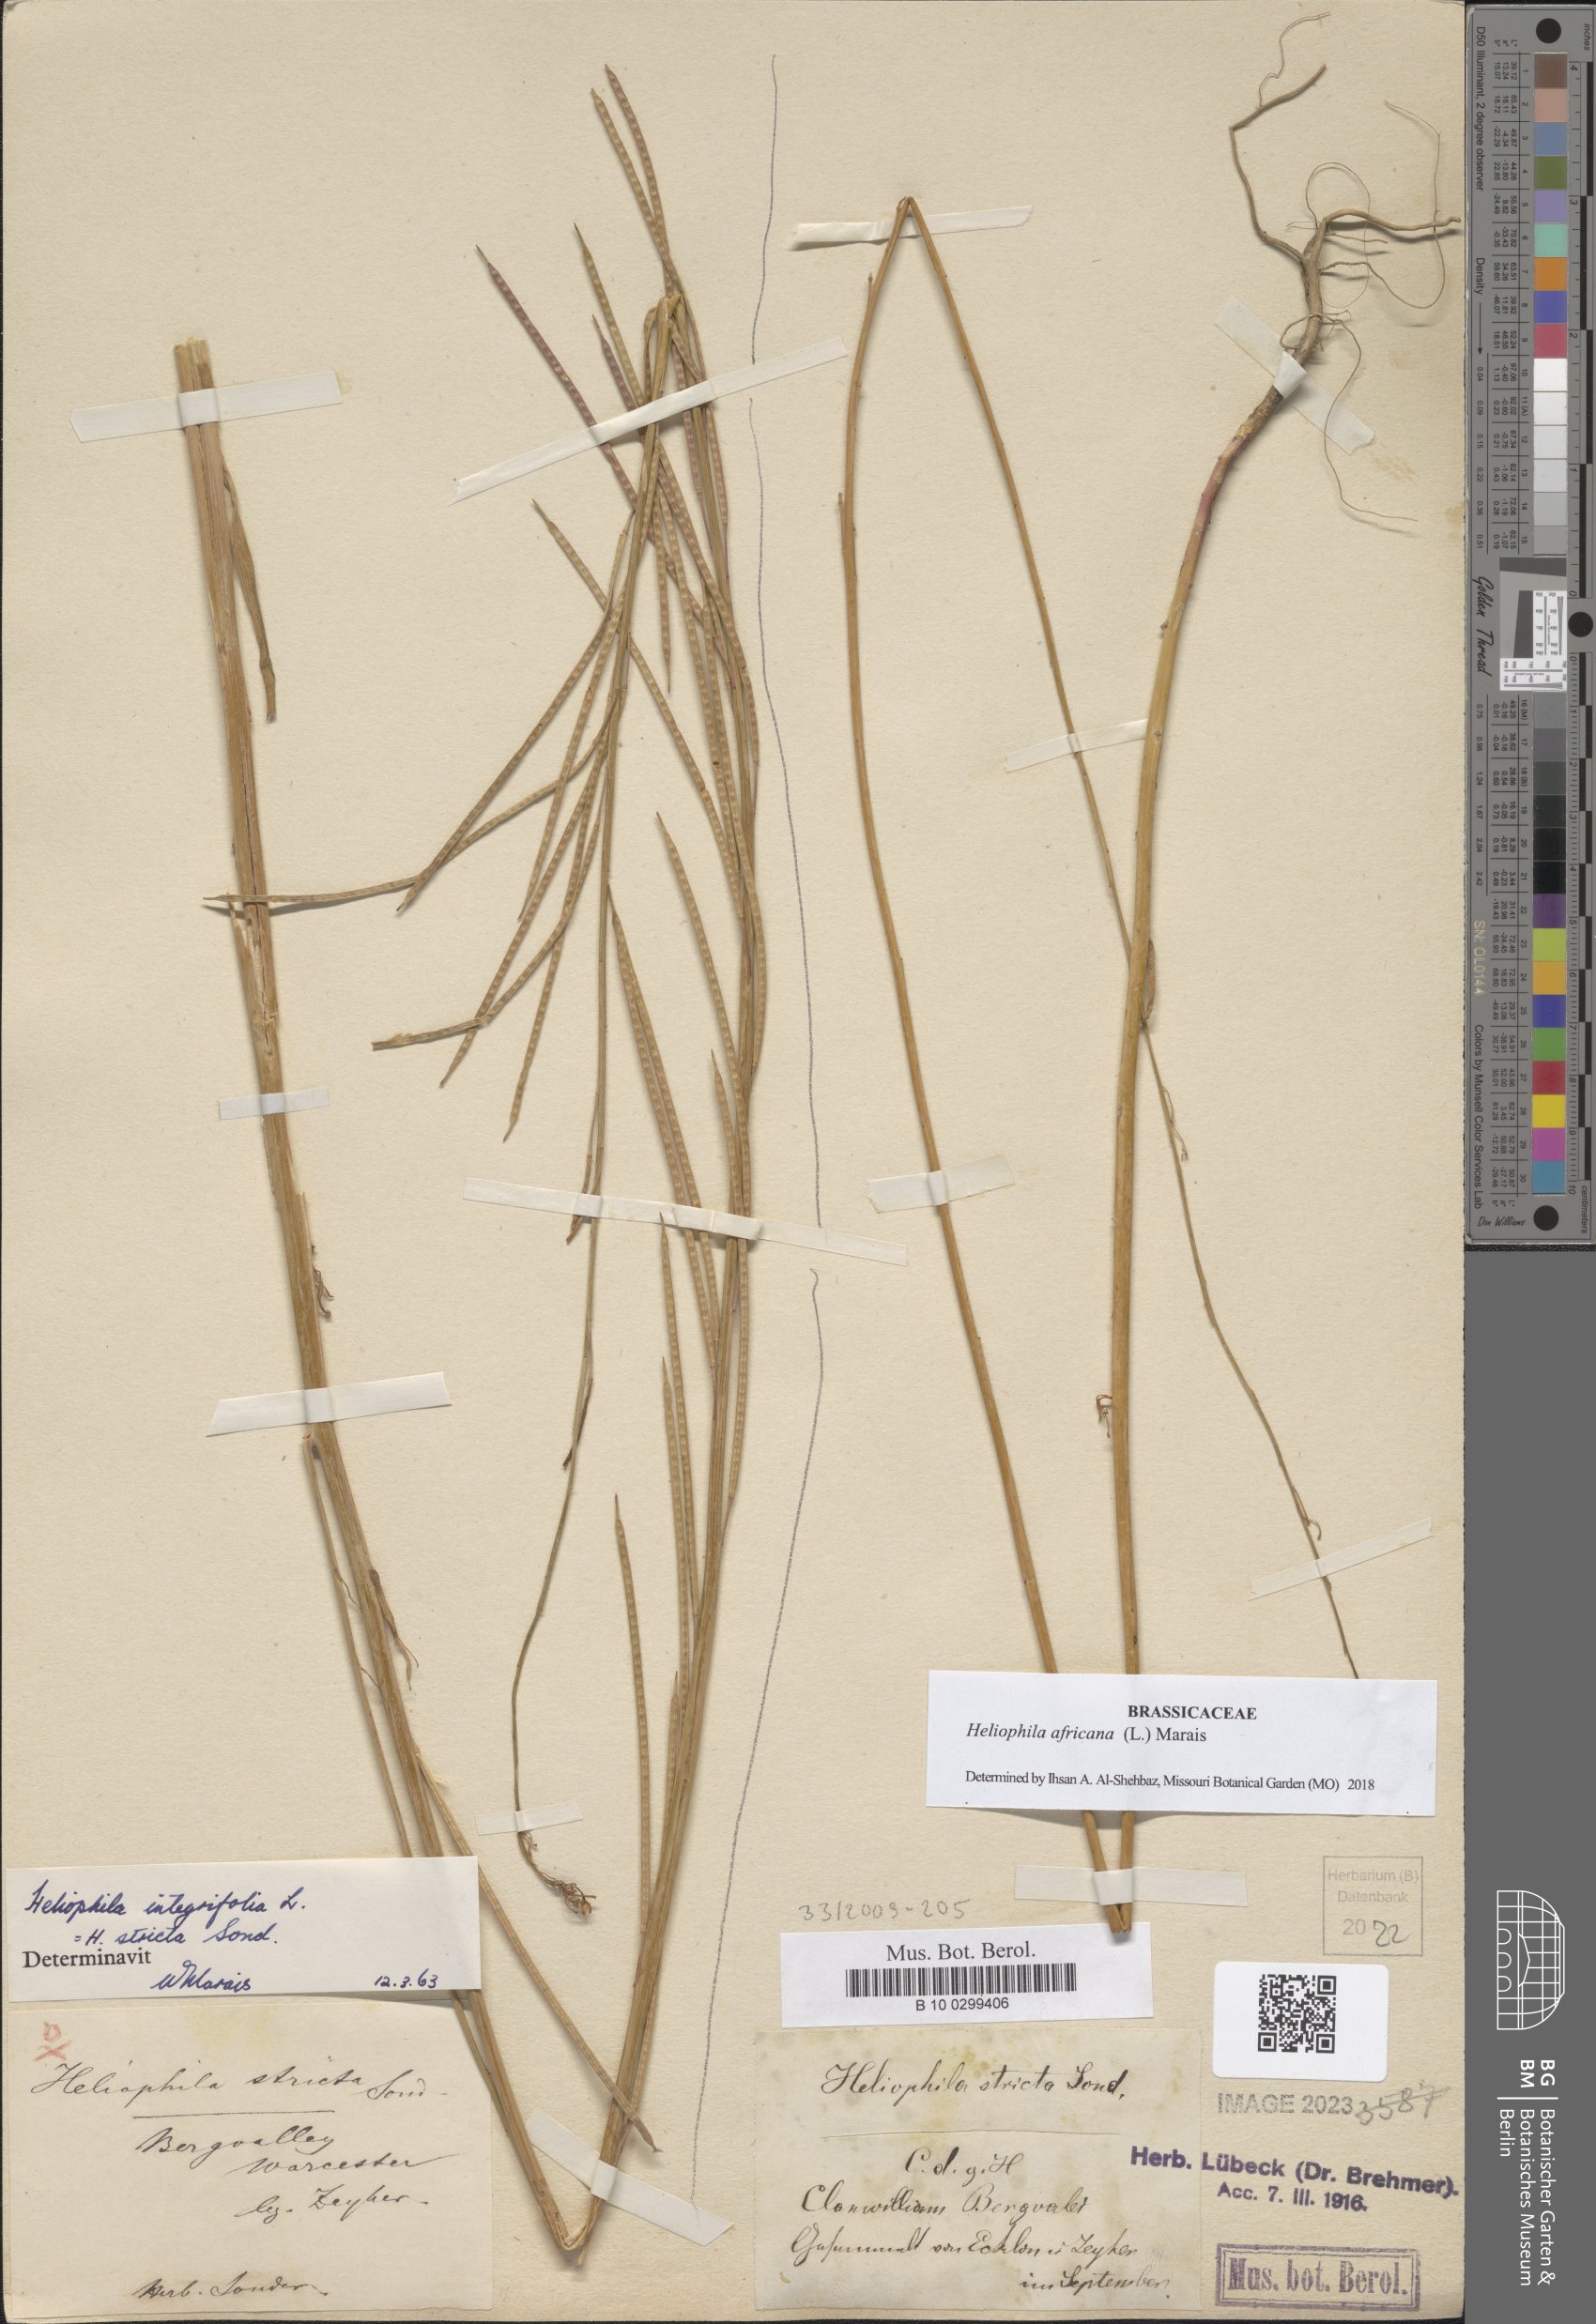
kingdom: Plantae
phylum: Tracheophyta
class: Magnoliopsida
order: Brassicales
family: Brassicaceae
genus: Heliophila
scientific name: Heliophila africana
